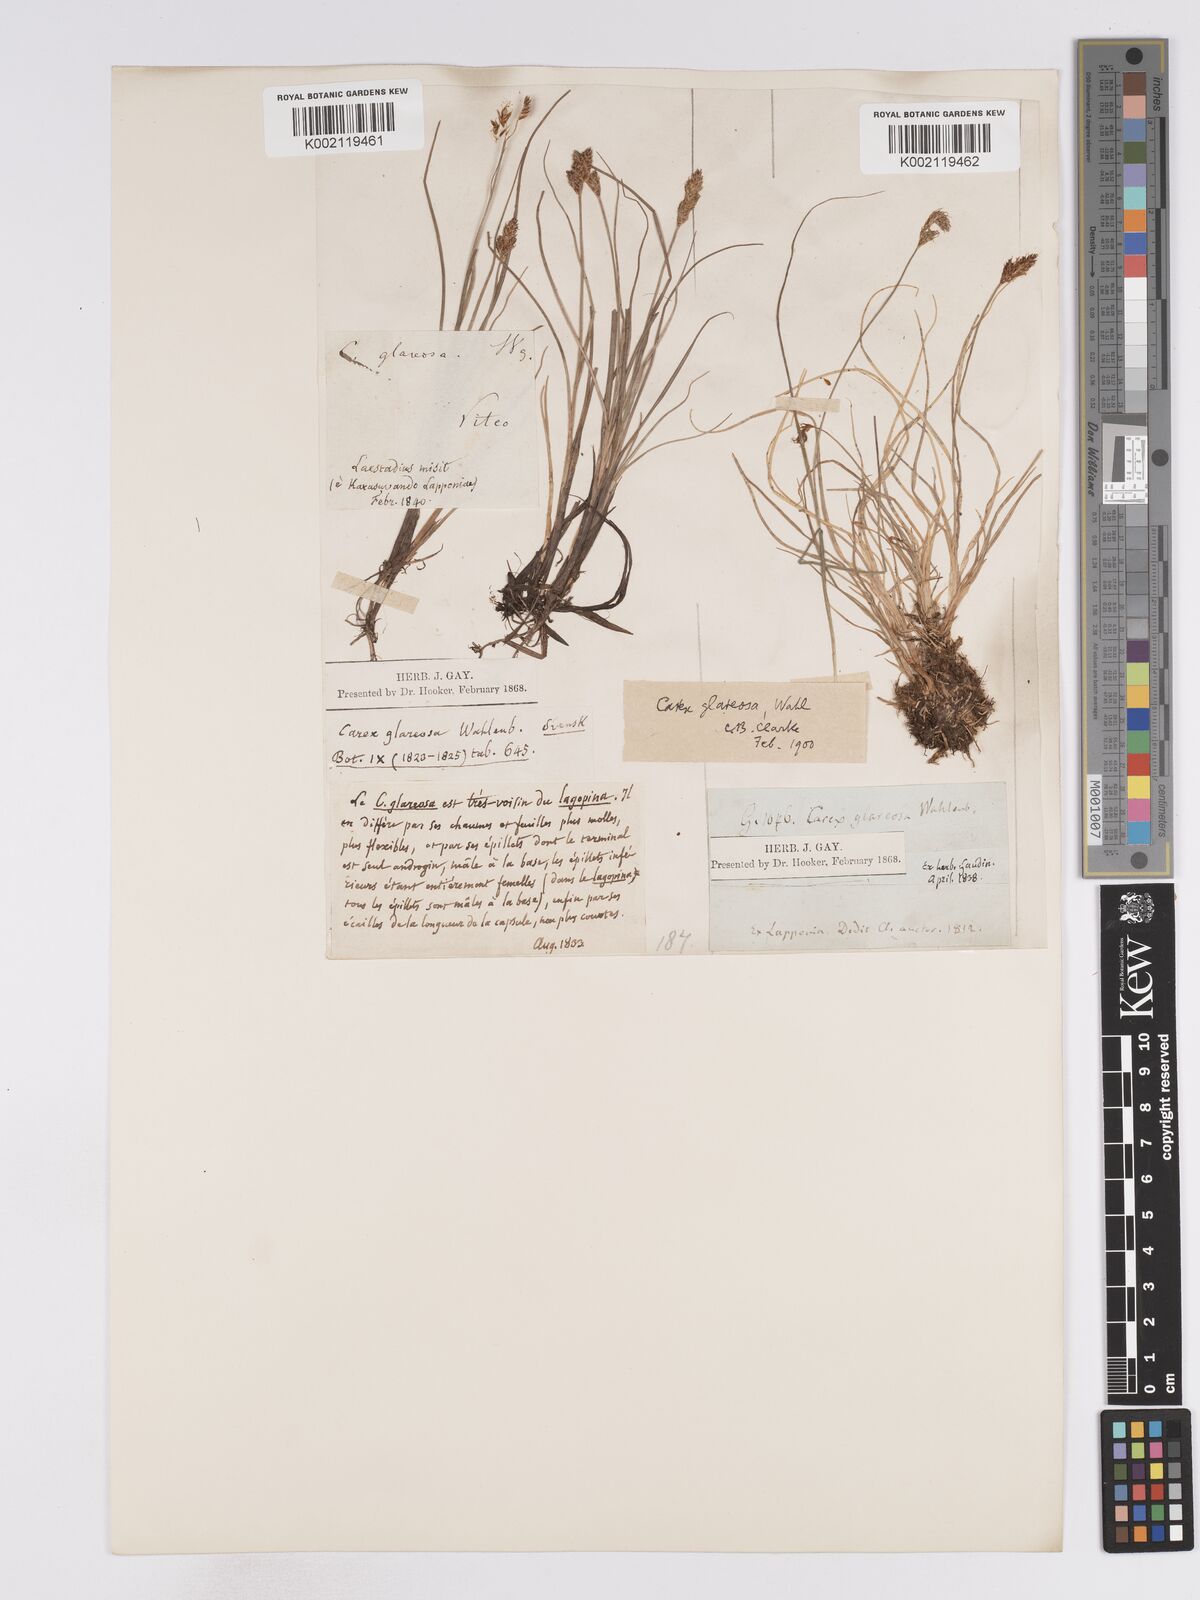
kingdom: Plantae
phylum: Tracheophyta
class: Liliopsida
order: Poales
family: Cyperaceae
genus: Carex
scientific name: Carex glareosa
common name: Clustered sedge
